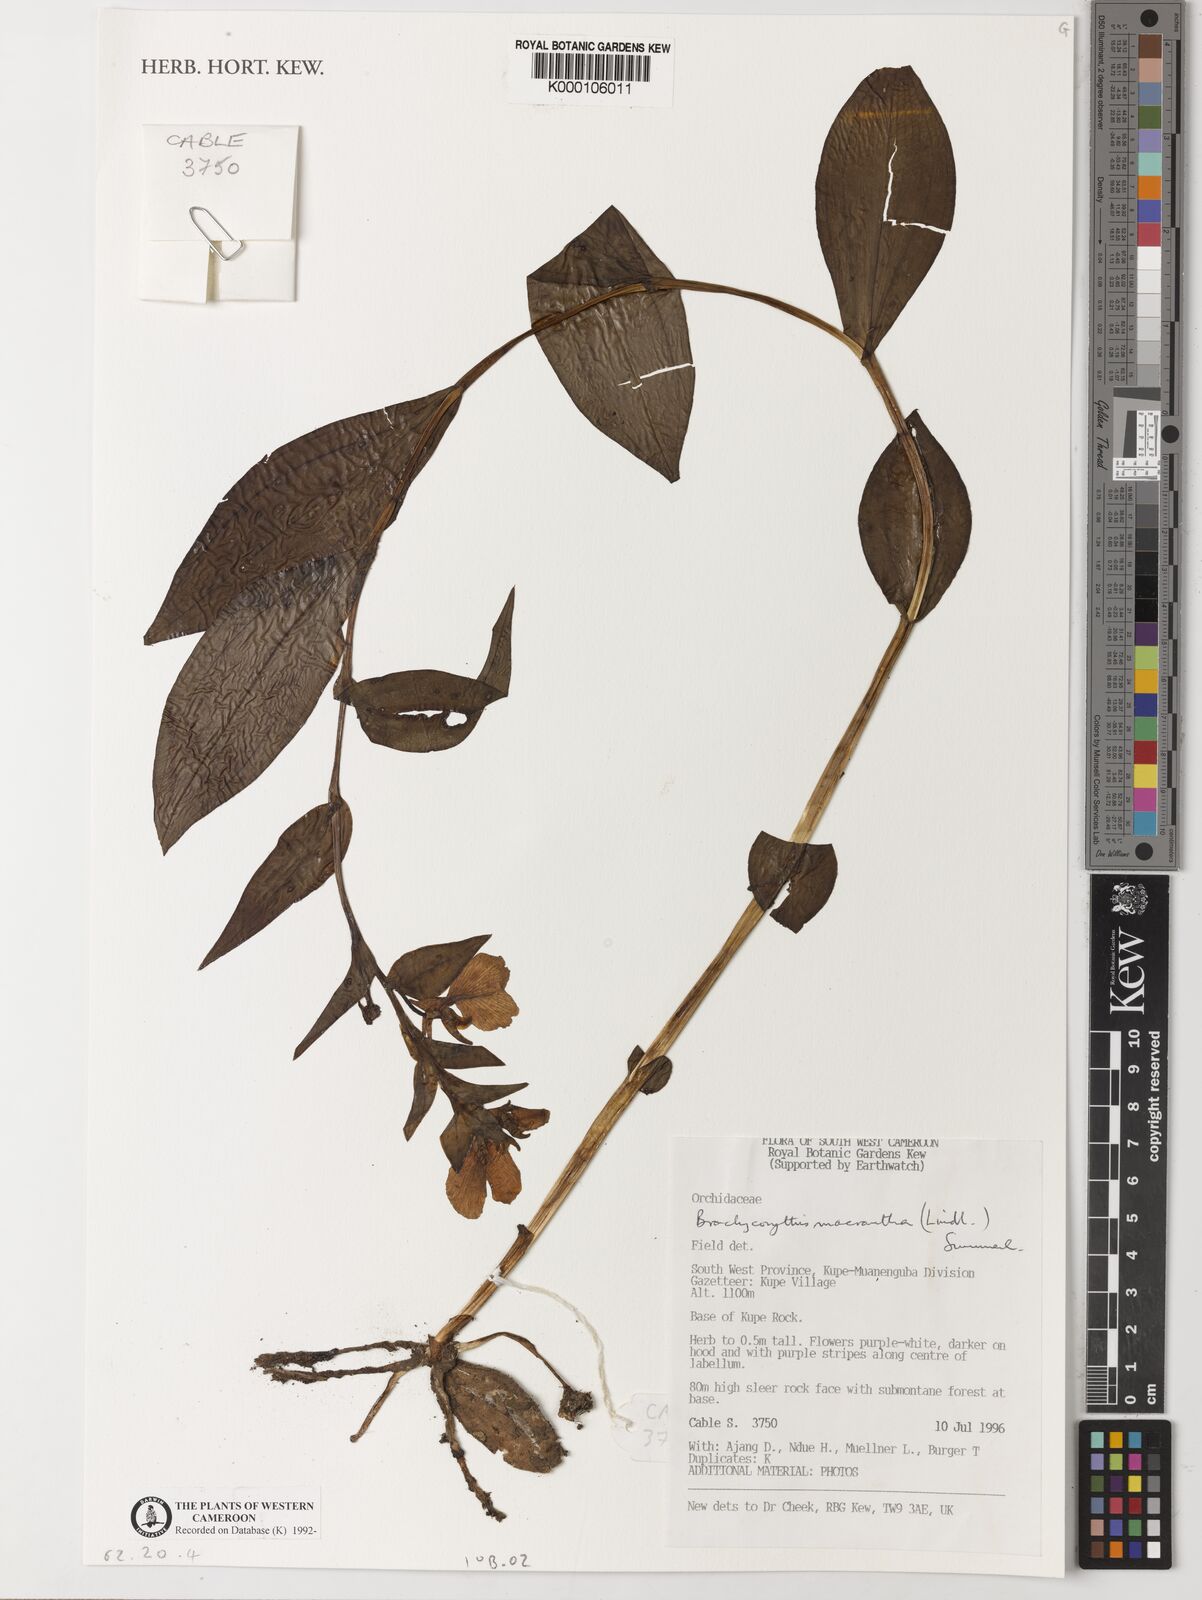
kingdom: Plantae
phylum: Tracheophyta
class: Liliopsida
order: Asparagales
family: Orchidaceae
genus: Brachycorythis
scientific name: Brachycorythis macrantha
